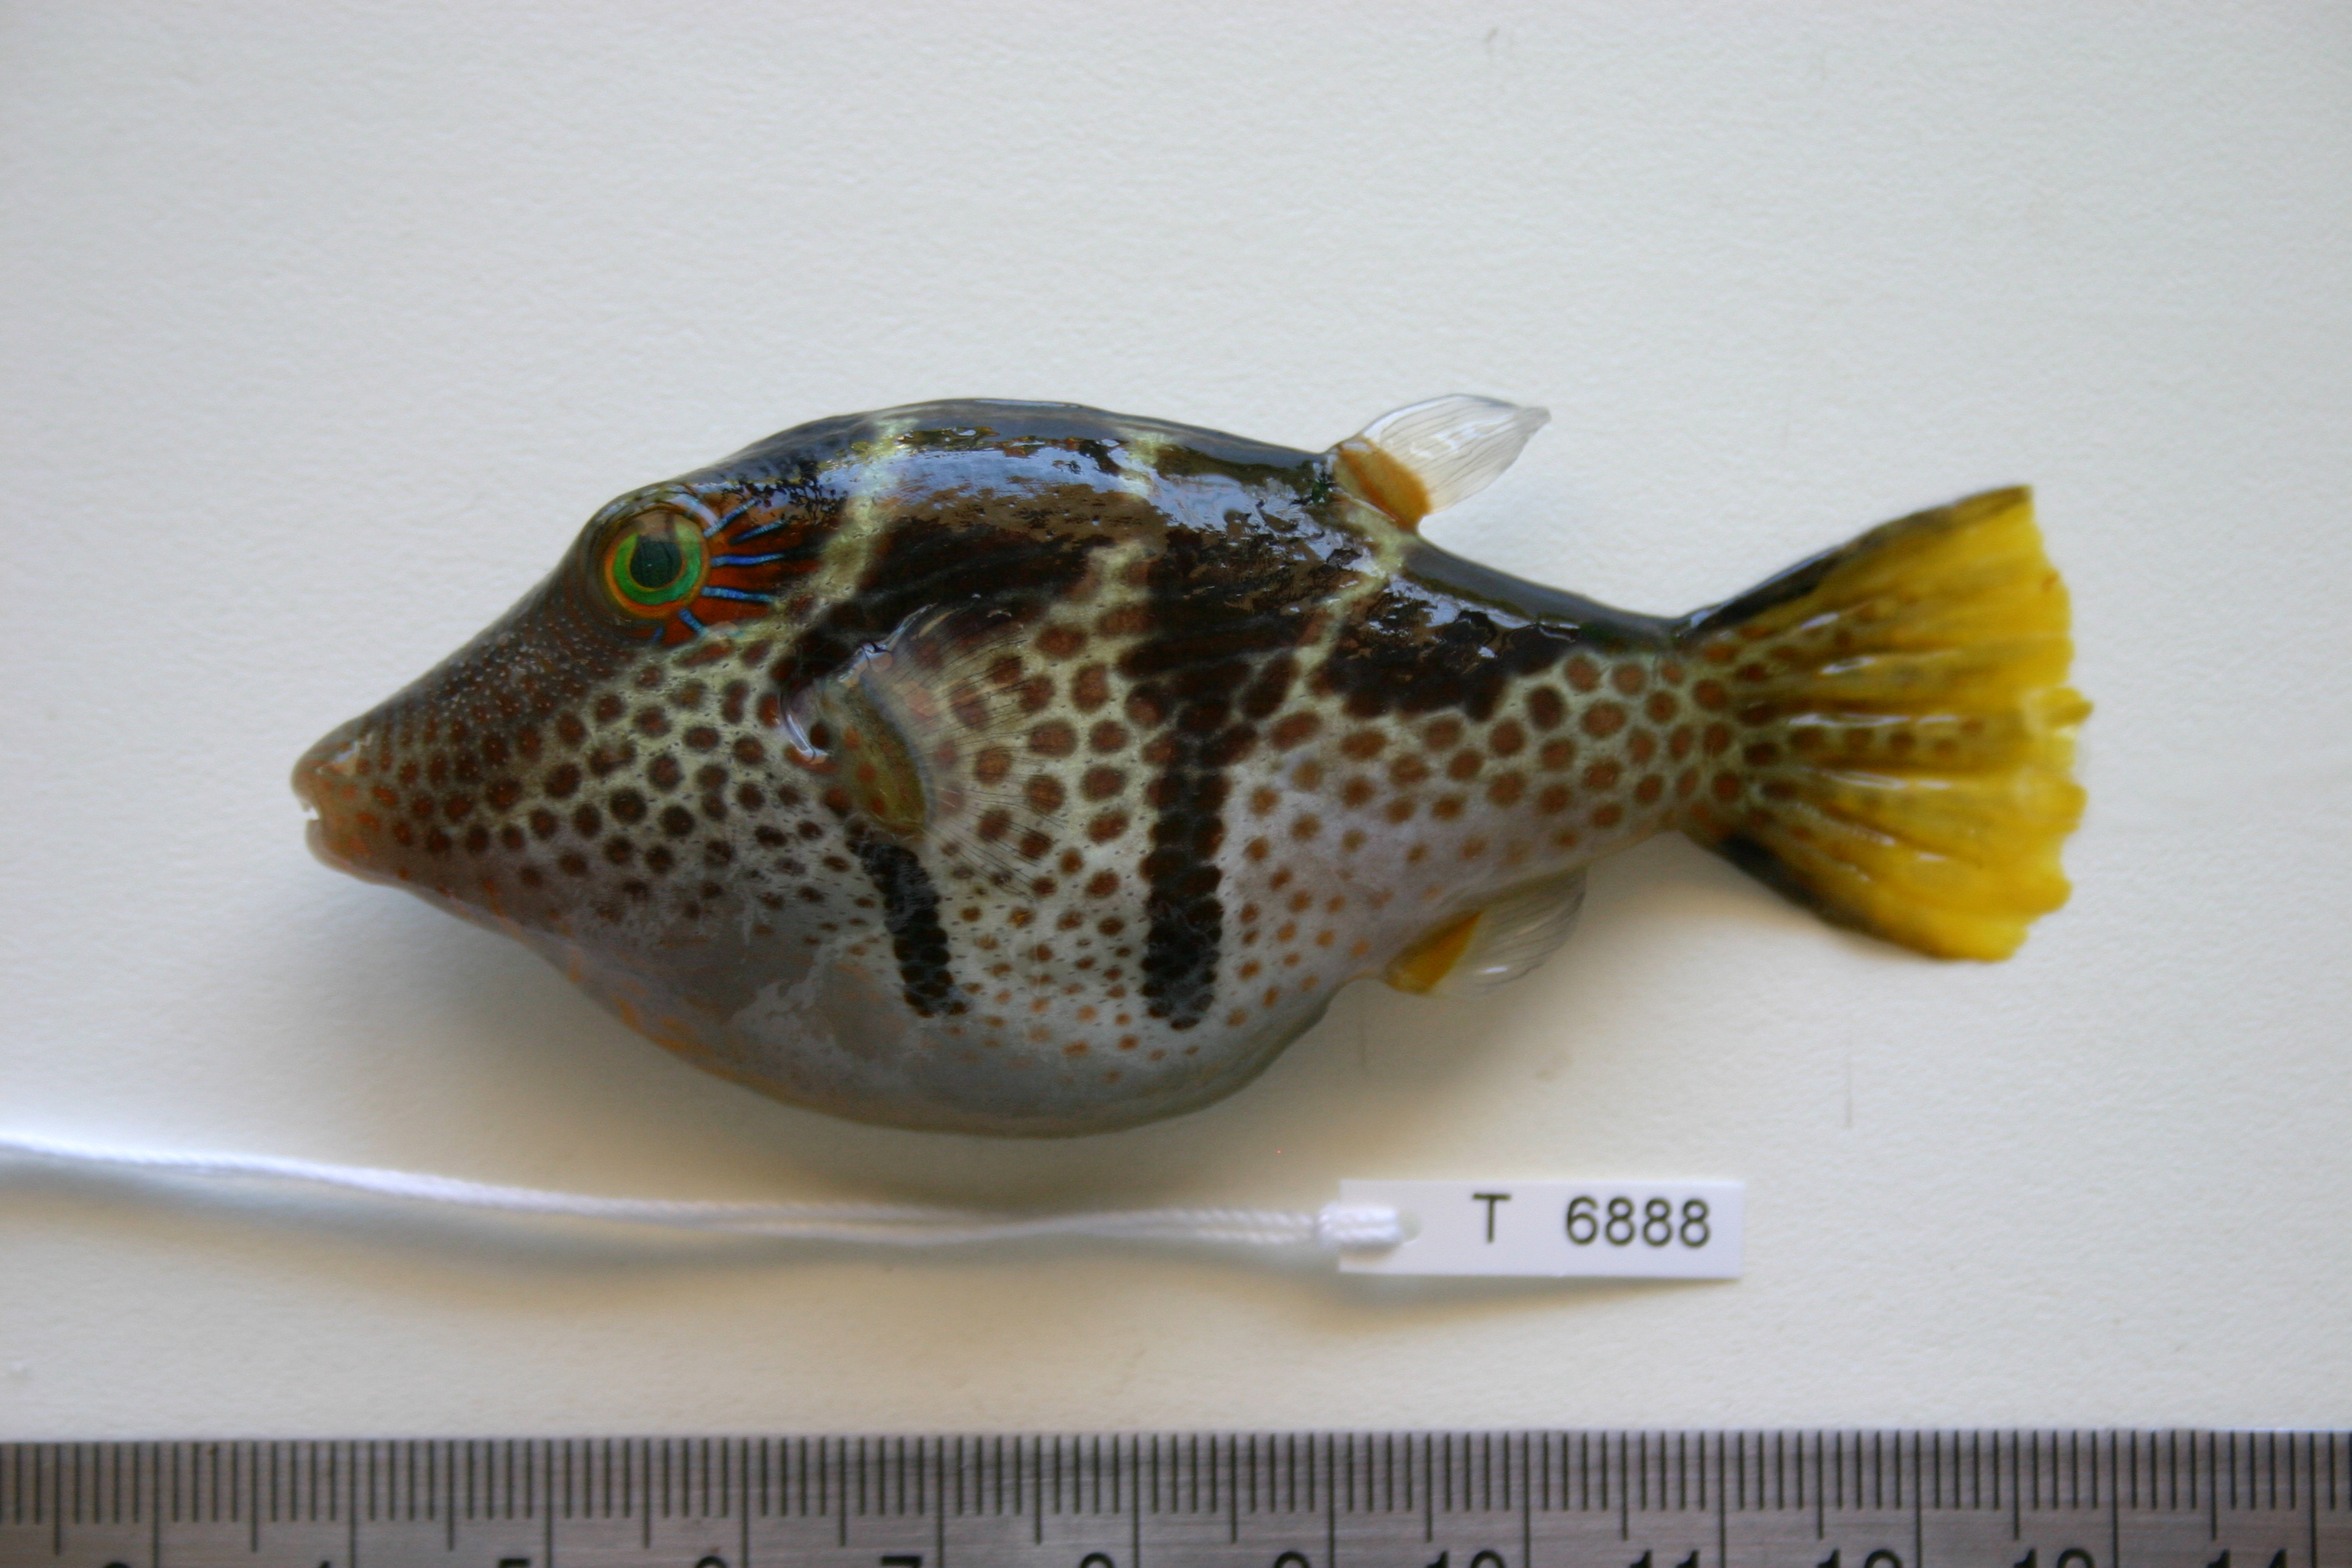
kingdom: Animalia
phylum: Chordata
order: Tetraodontiformes
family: Tetraodontidae
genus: Canthigaster
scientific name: Canthigaster valentini
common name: Banded toby
